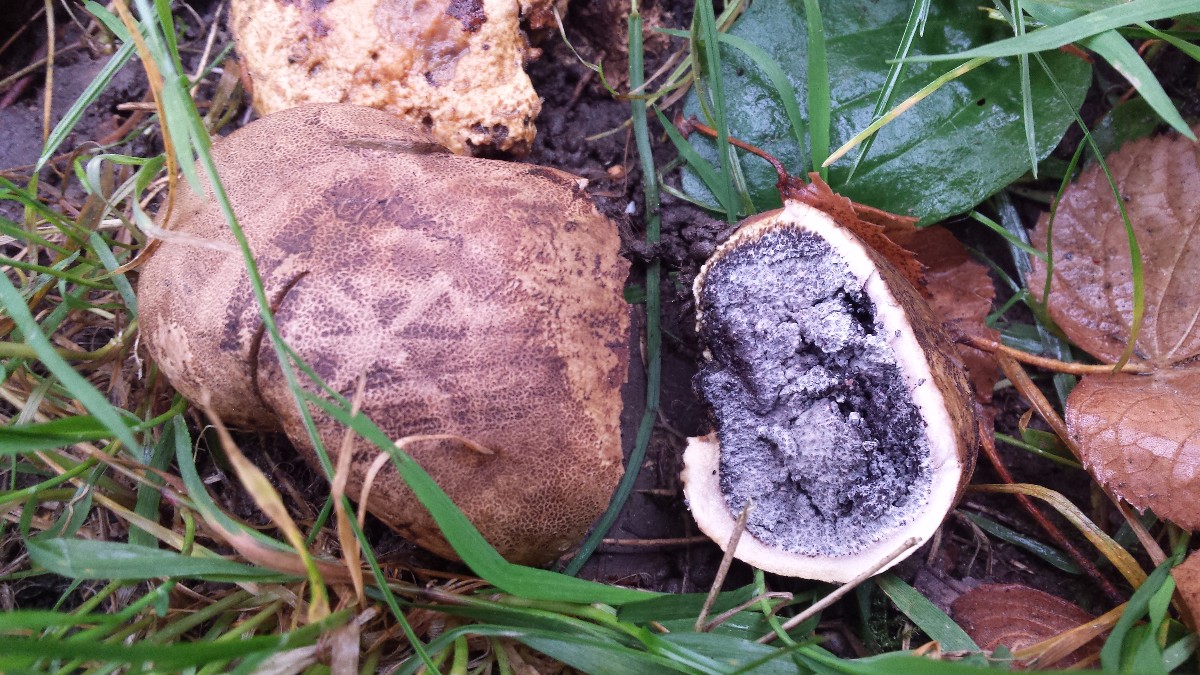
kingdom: Fungi
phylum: Basidiomycota
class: Agaricomycetes
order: Boletales
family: Sclerodermataceae
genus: Scleroderma
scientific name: Scleroderma citrinum
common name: almindelig bruskbold
